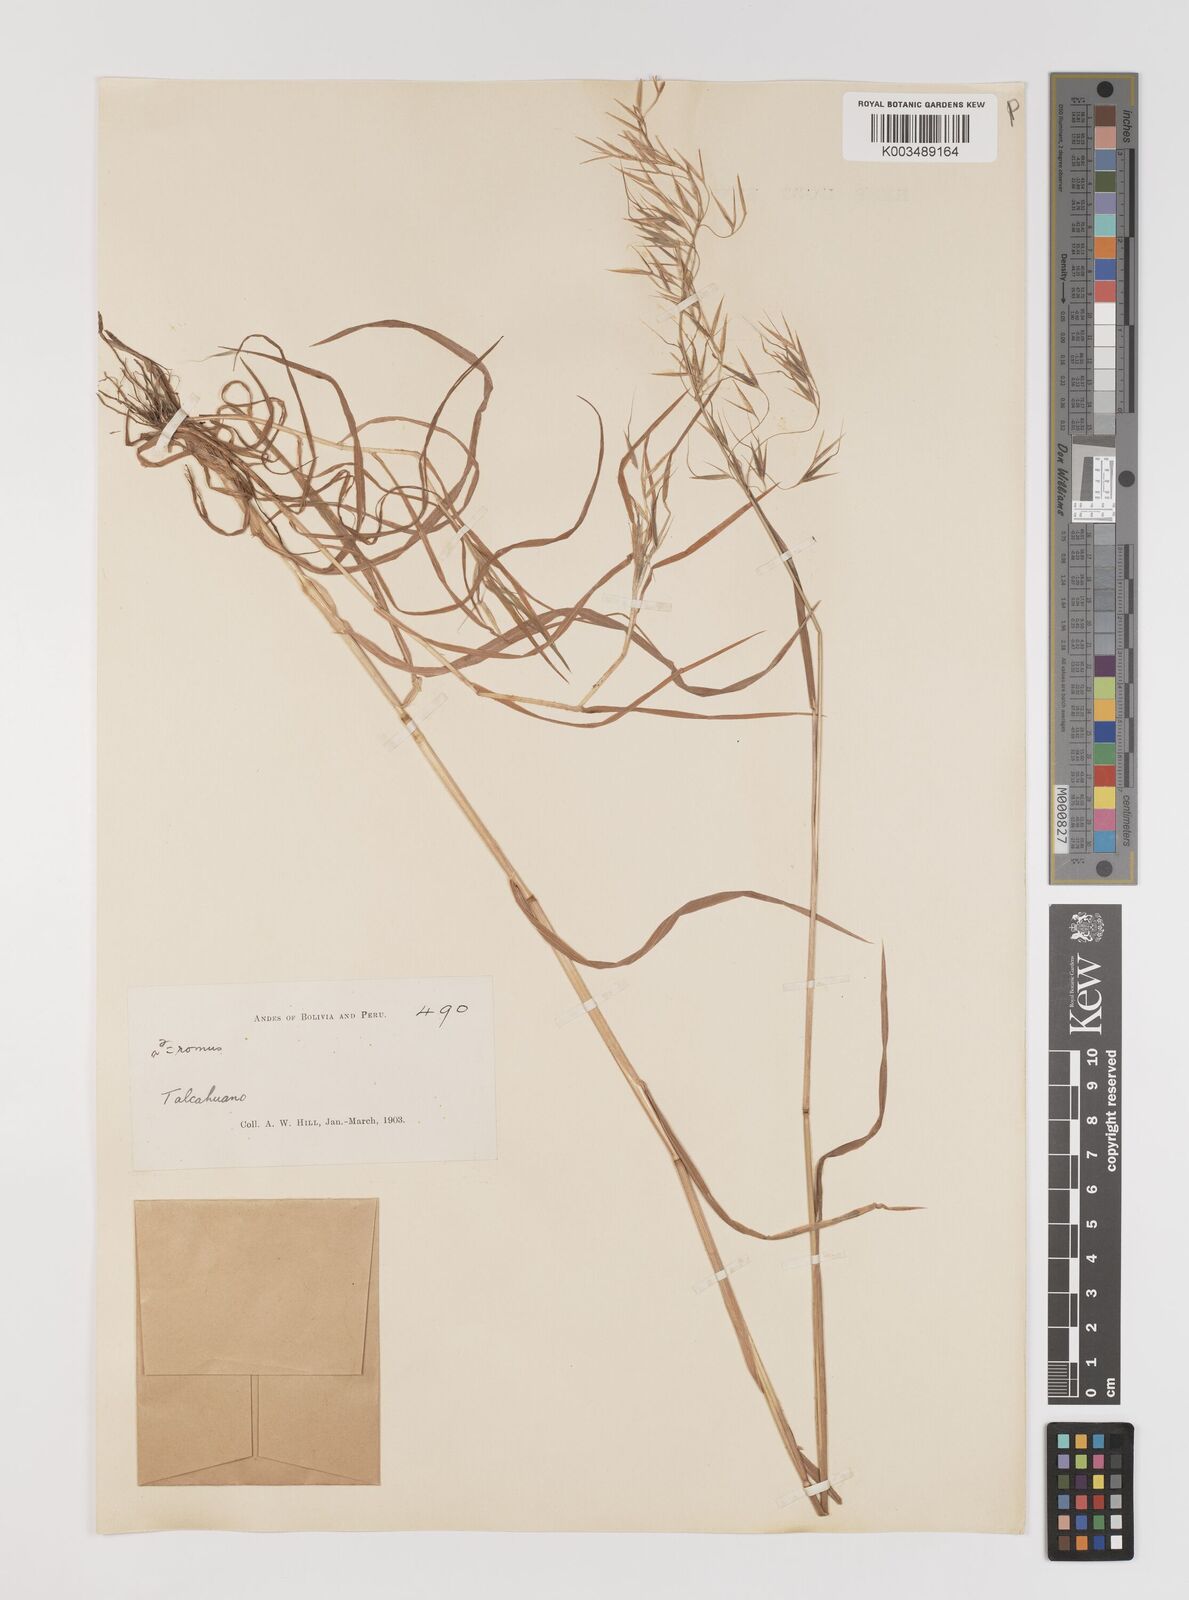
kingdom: Plantae
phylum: Tracheophyta
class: Liliopsida
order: Poales
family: Poaceae
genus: Bromus
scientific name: Bromus berteroanus
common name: Chilean chess
